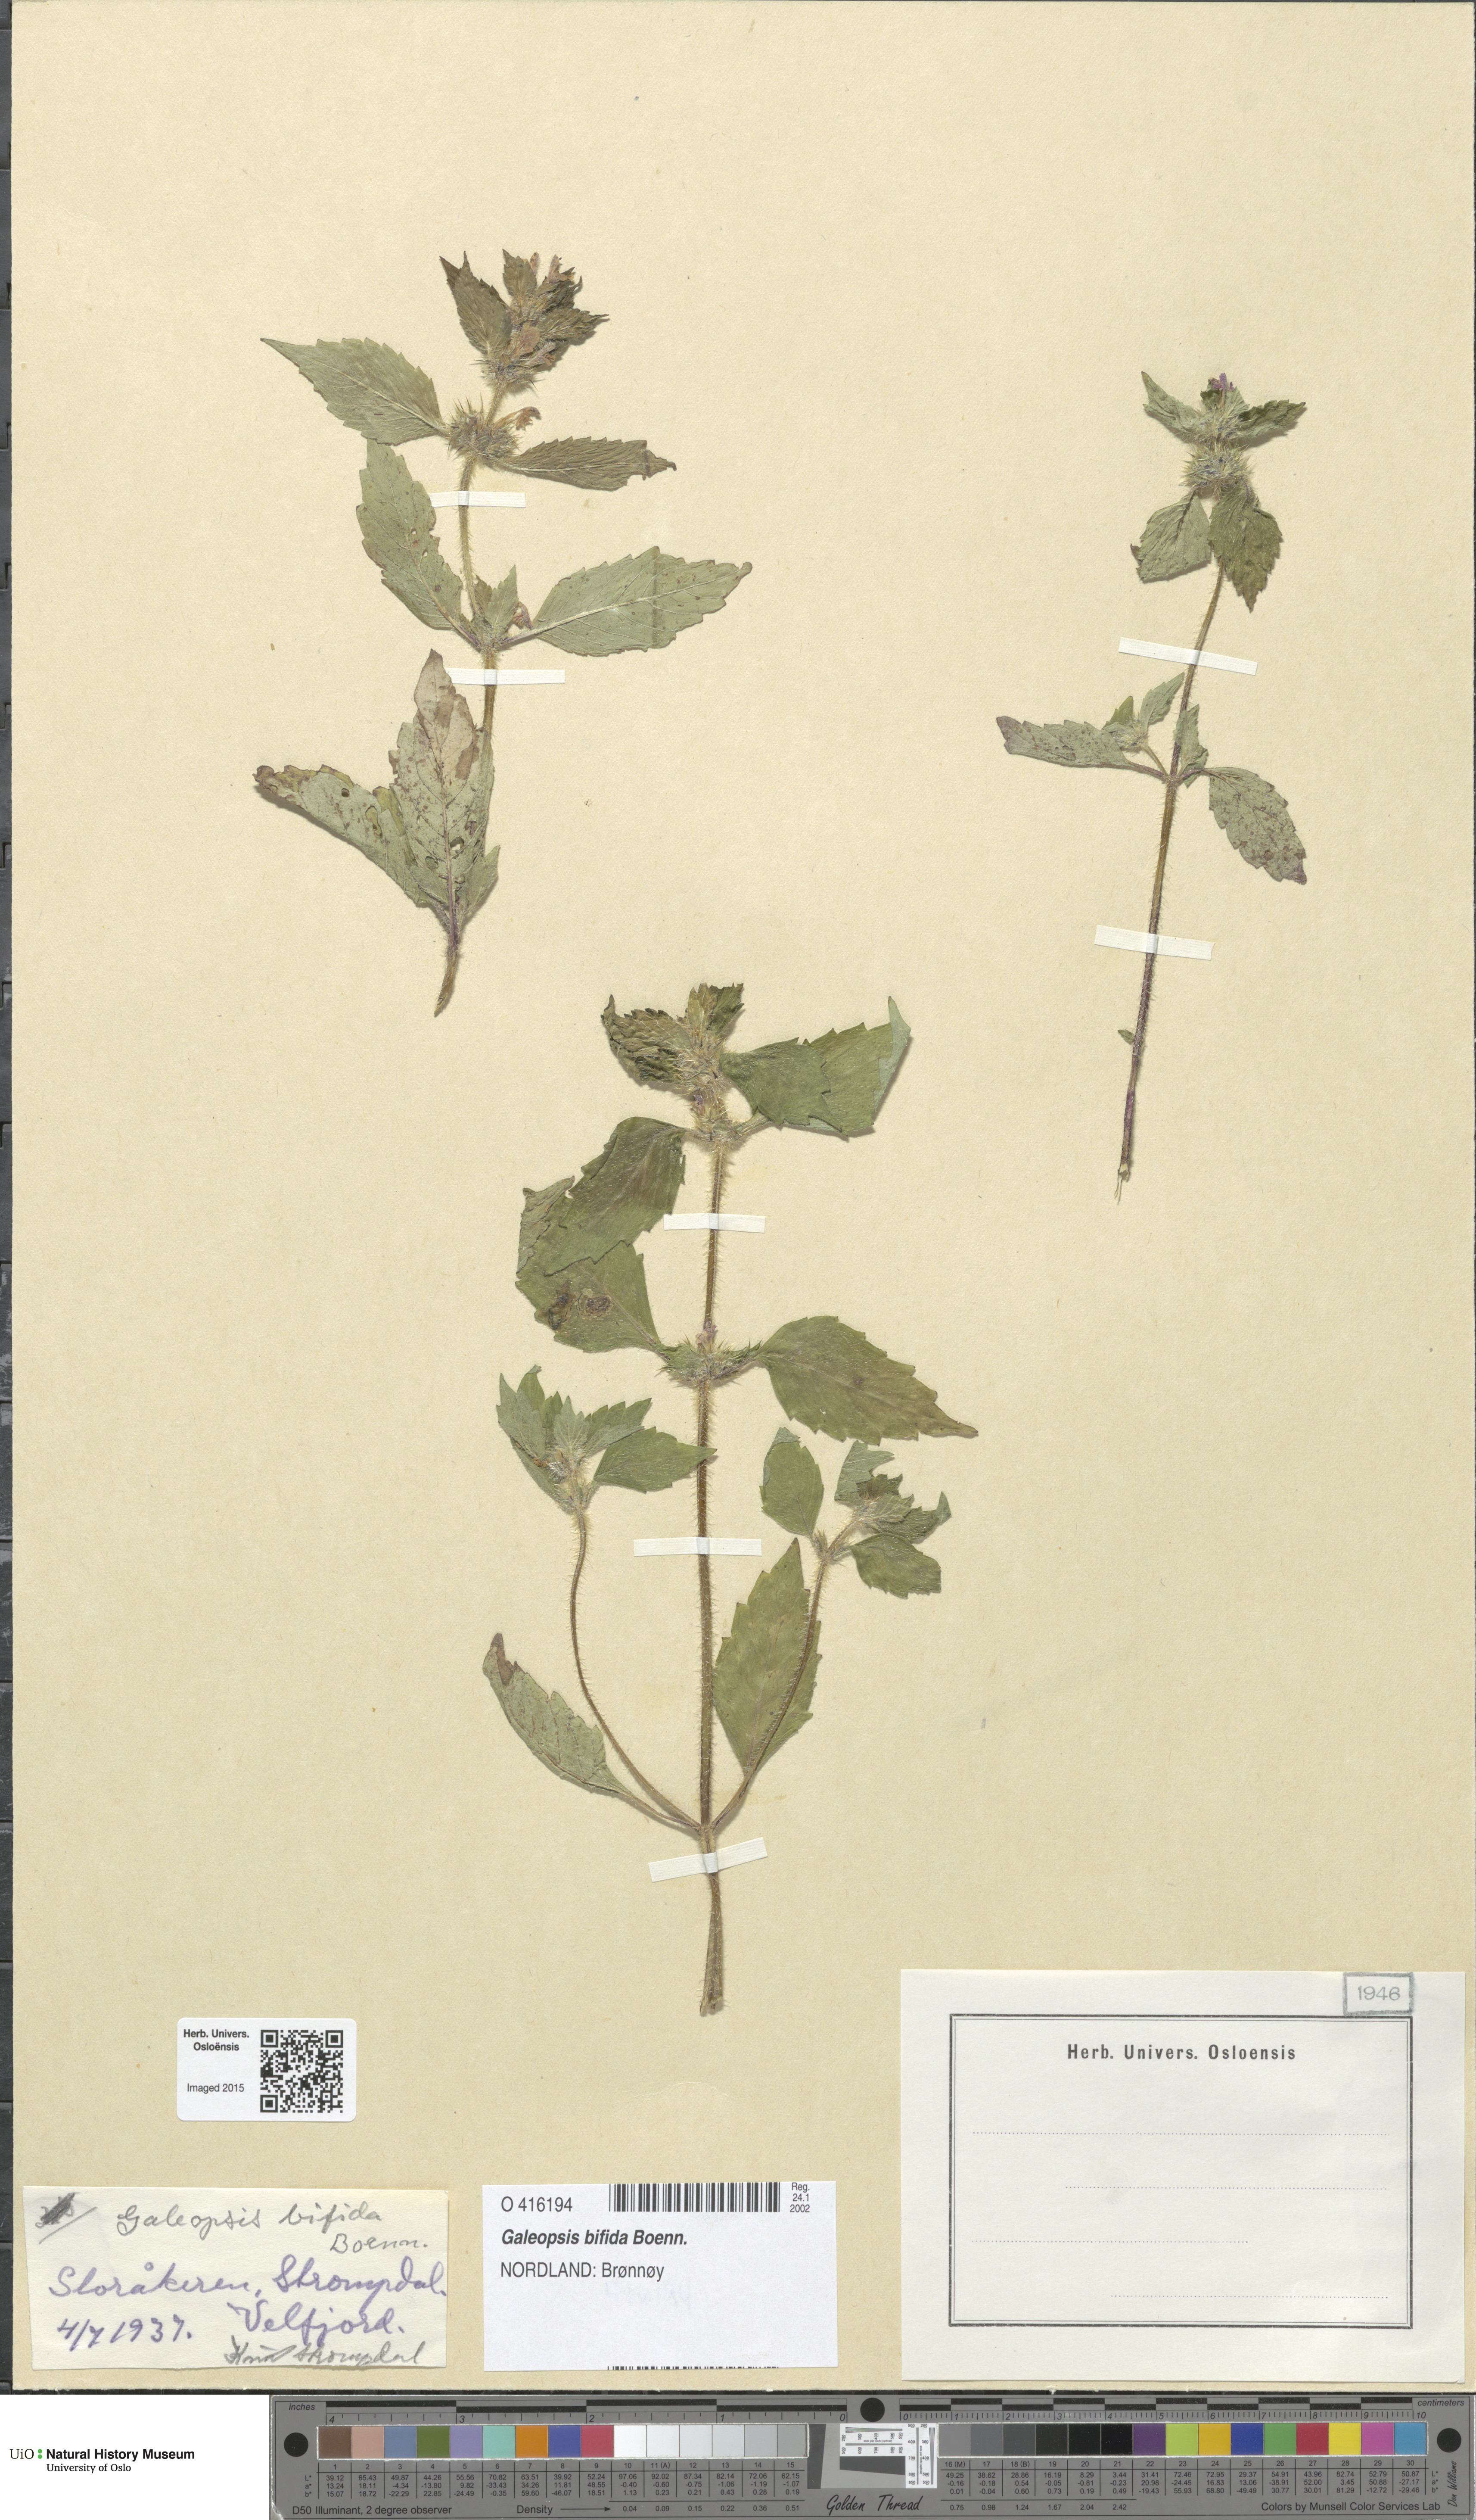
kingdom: Plantae
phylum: Tracheophyta
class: Magnoliopsida
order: Lamiales
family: Lamiaceae
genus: Galeopsis
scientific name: Galeopsis bifida
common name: Bifid hemp-nettle
